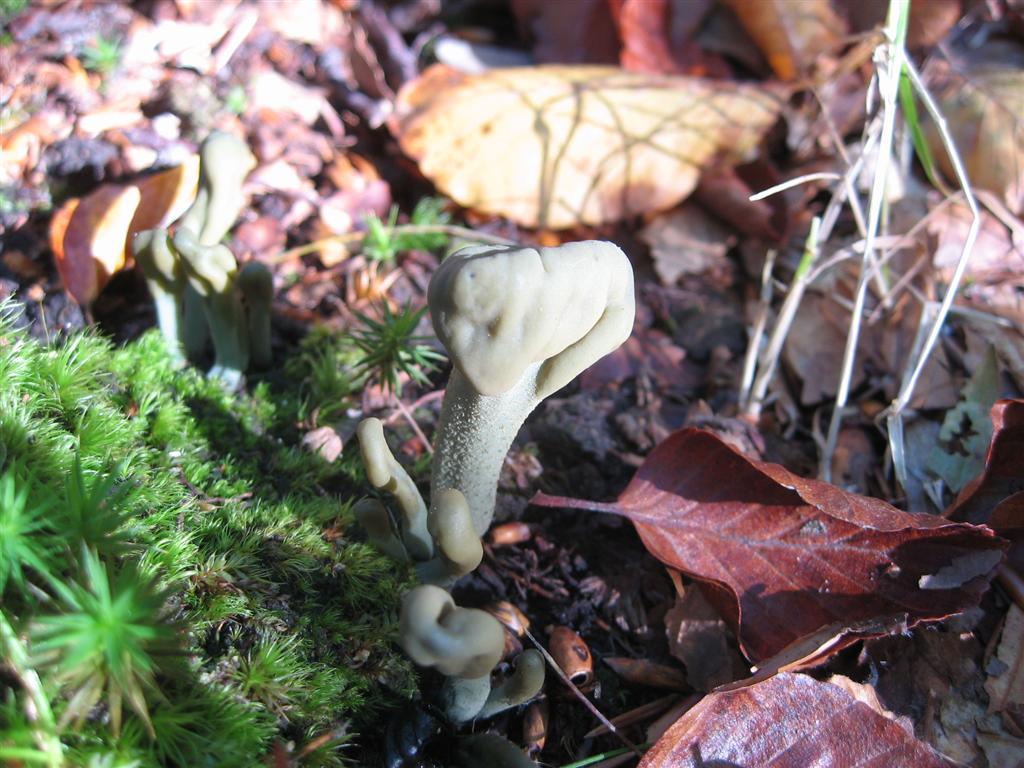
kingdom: Fungi
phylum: Ascomycota
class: Leotiomycetes
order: Leotiales
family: Leotiaceae
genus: Microglossum
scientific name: Microglossum griseoviride
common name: grågrøn farvetunge
